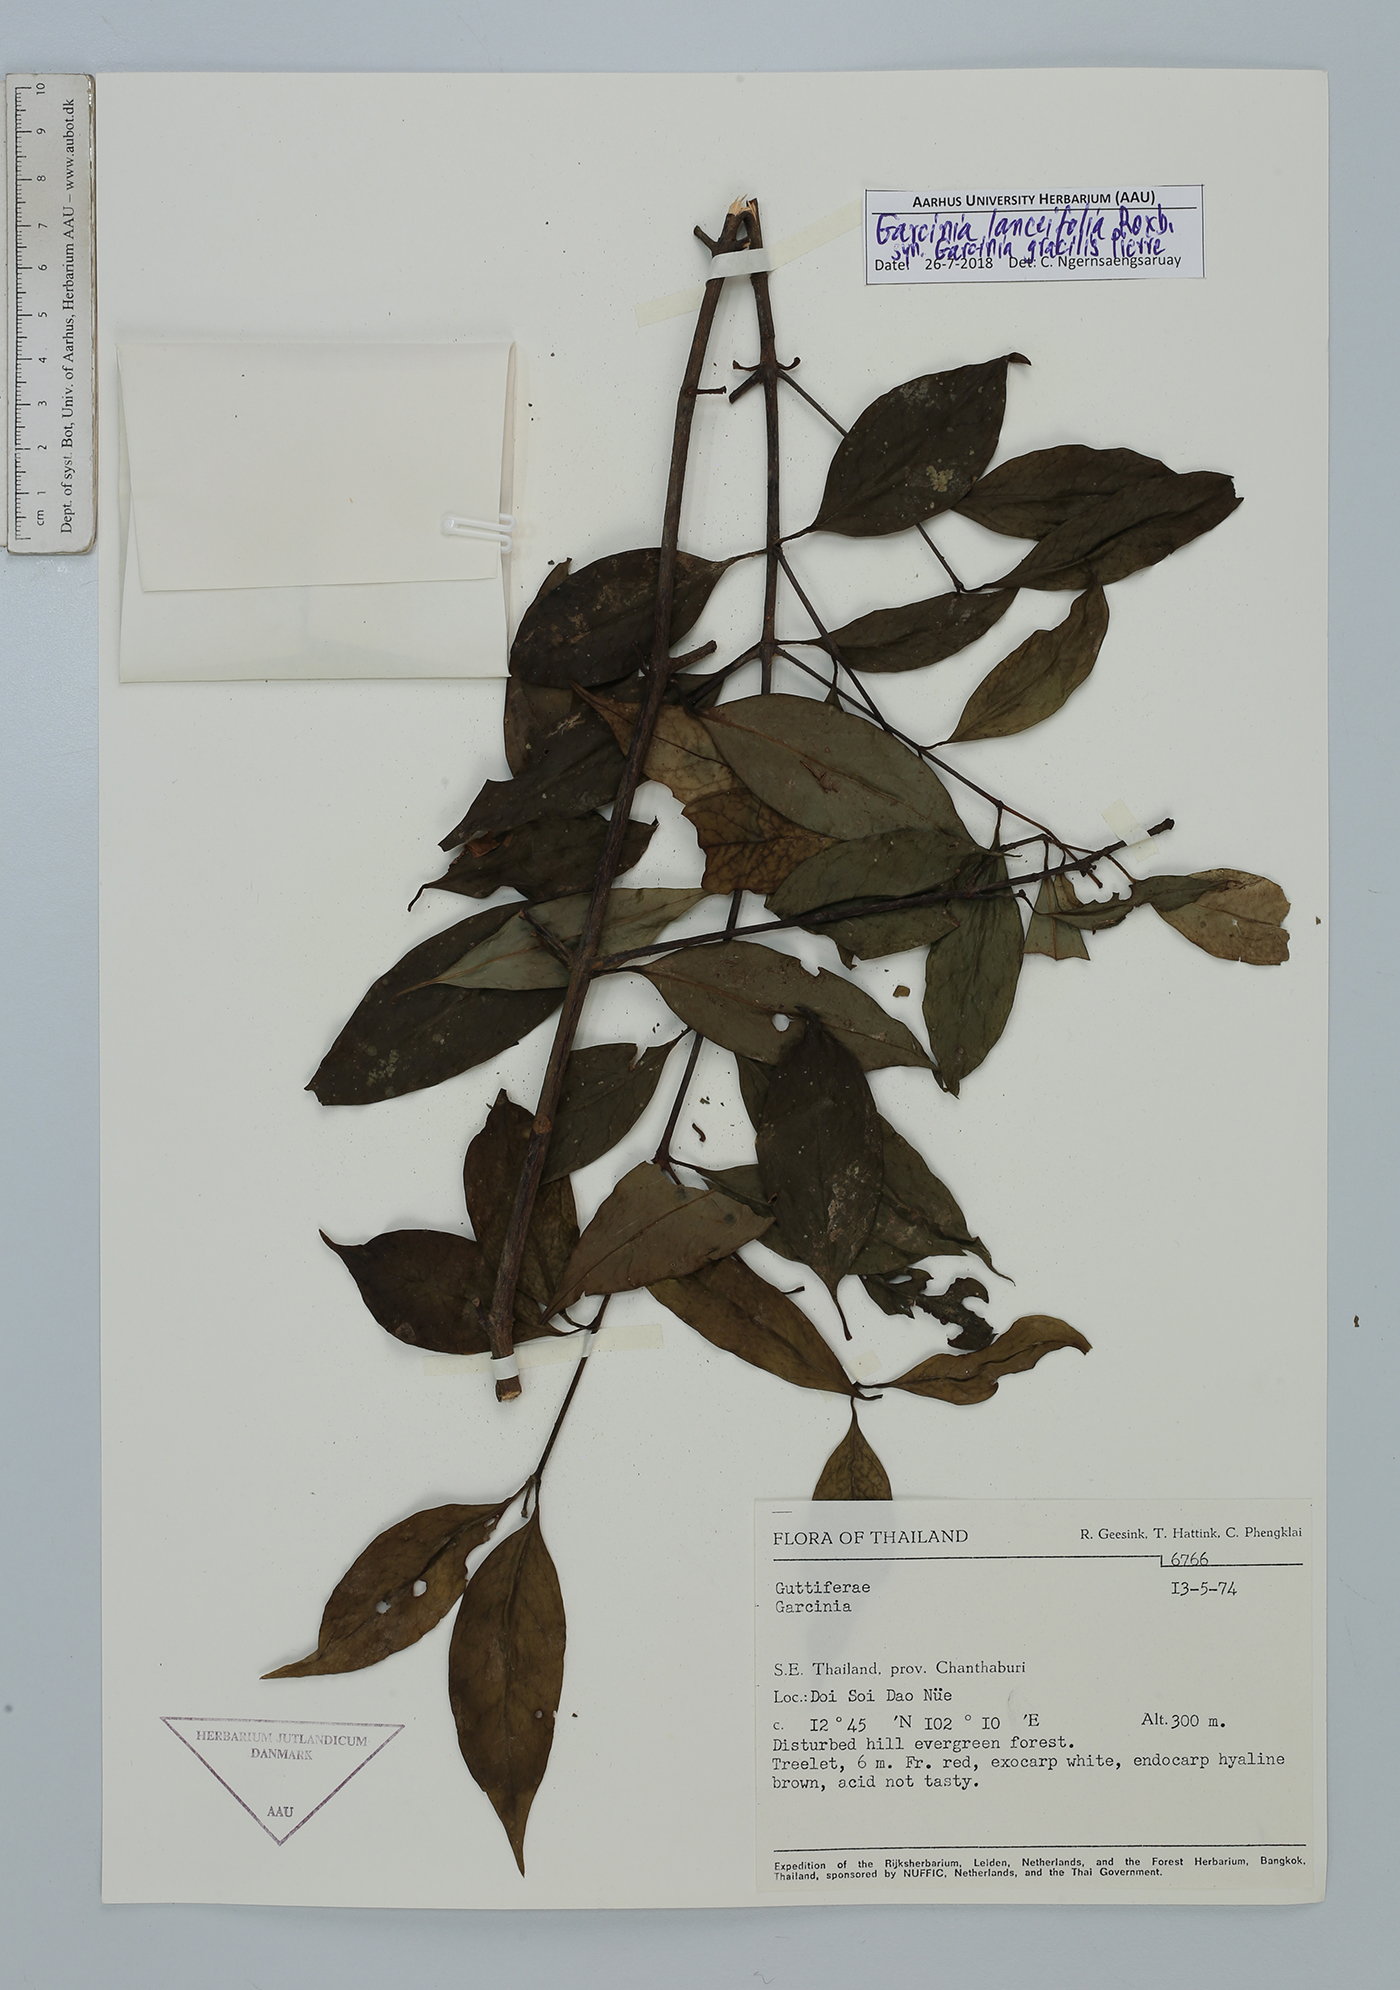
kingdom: Plantae
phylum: Tracheophyta
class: Magnoliopsida
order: Malpighiales
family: Clusiaceae
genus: Garcinia
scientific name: Garcinia lanceifolia
